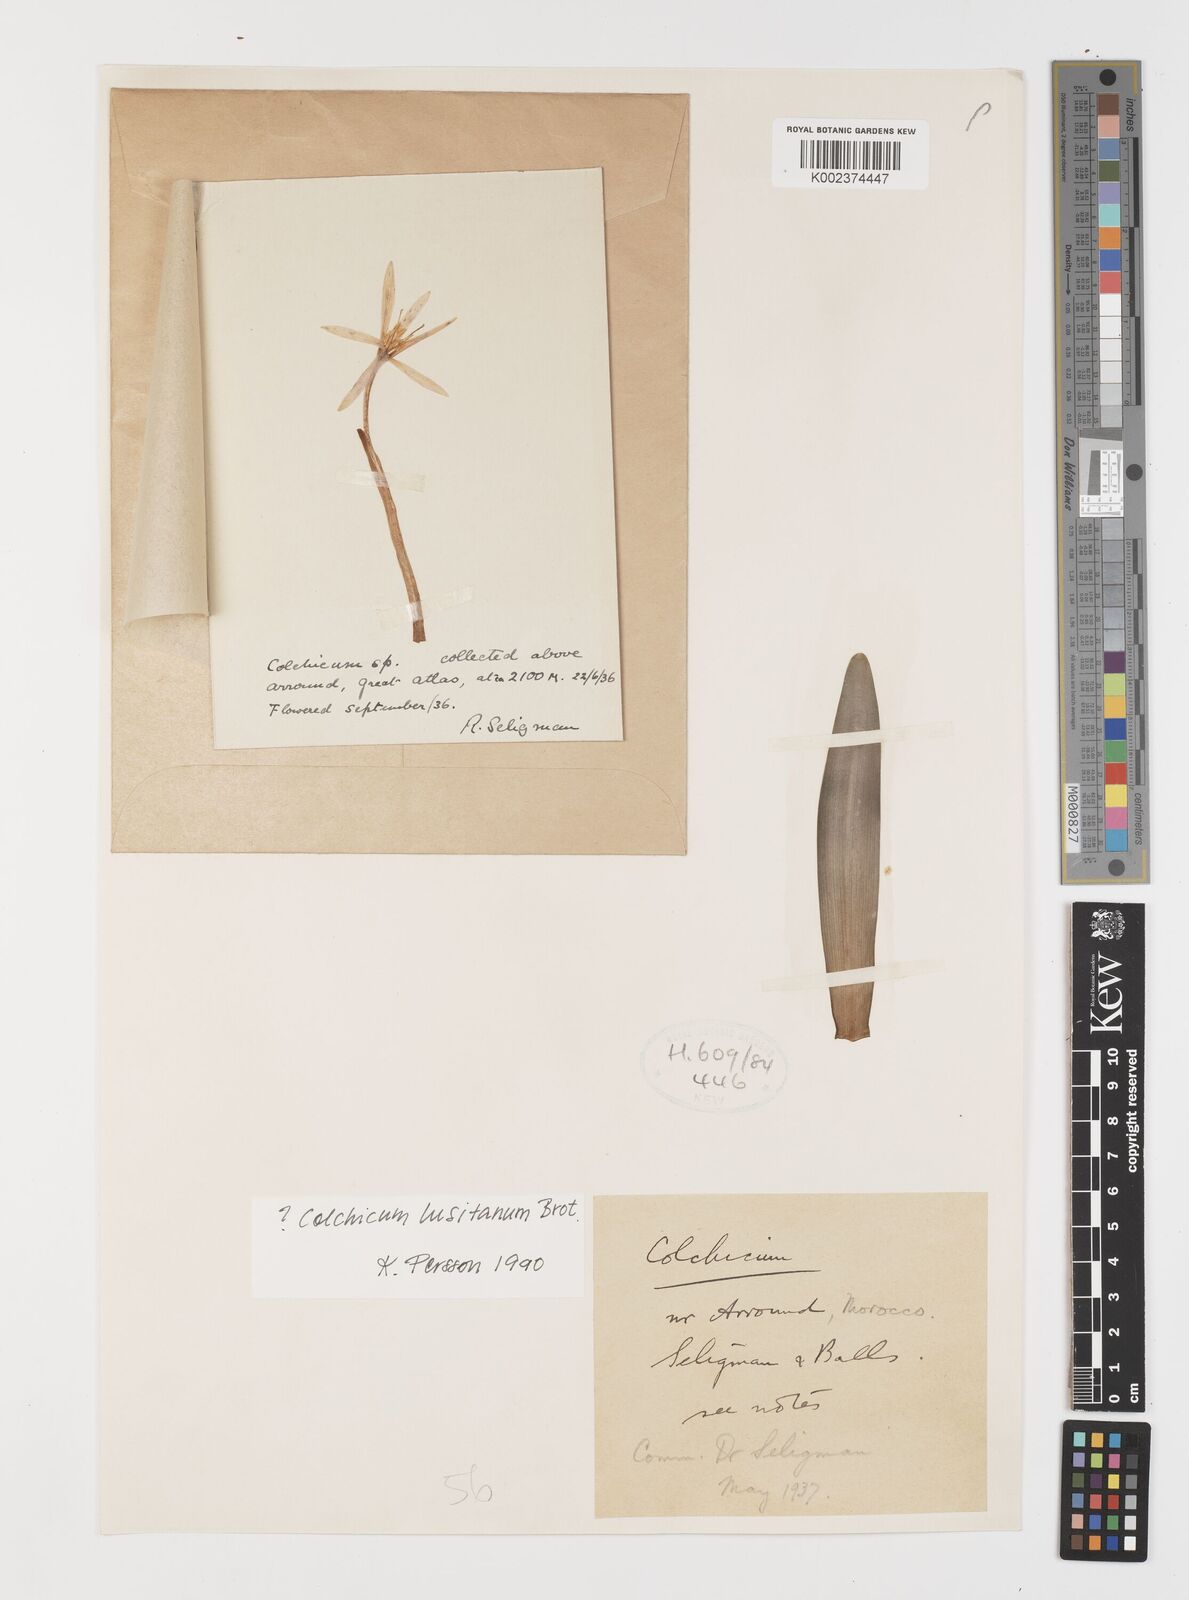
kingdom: Plantae
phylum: Tracheophyta
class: Liliopsida
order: Liliales
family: Colchicaceae
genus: Colchicum
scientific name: Colchicum lusitanum
